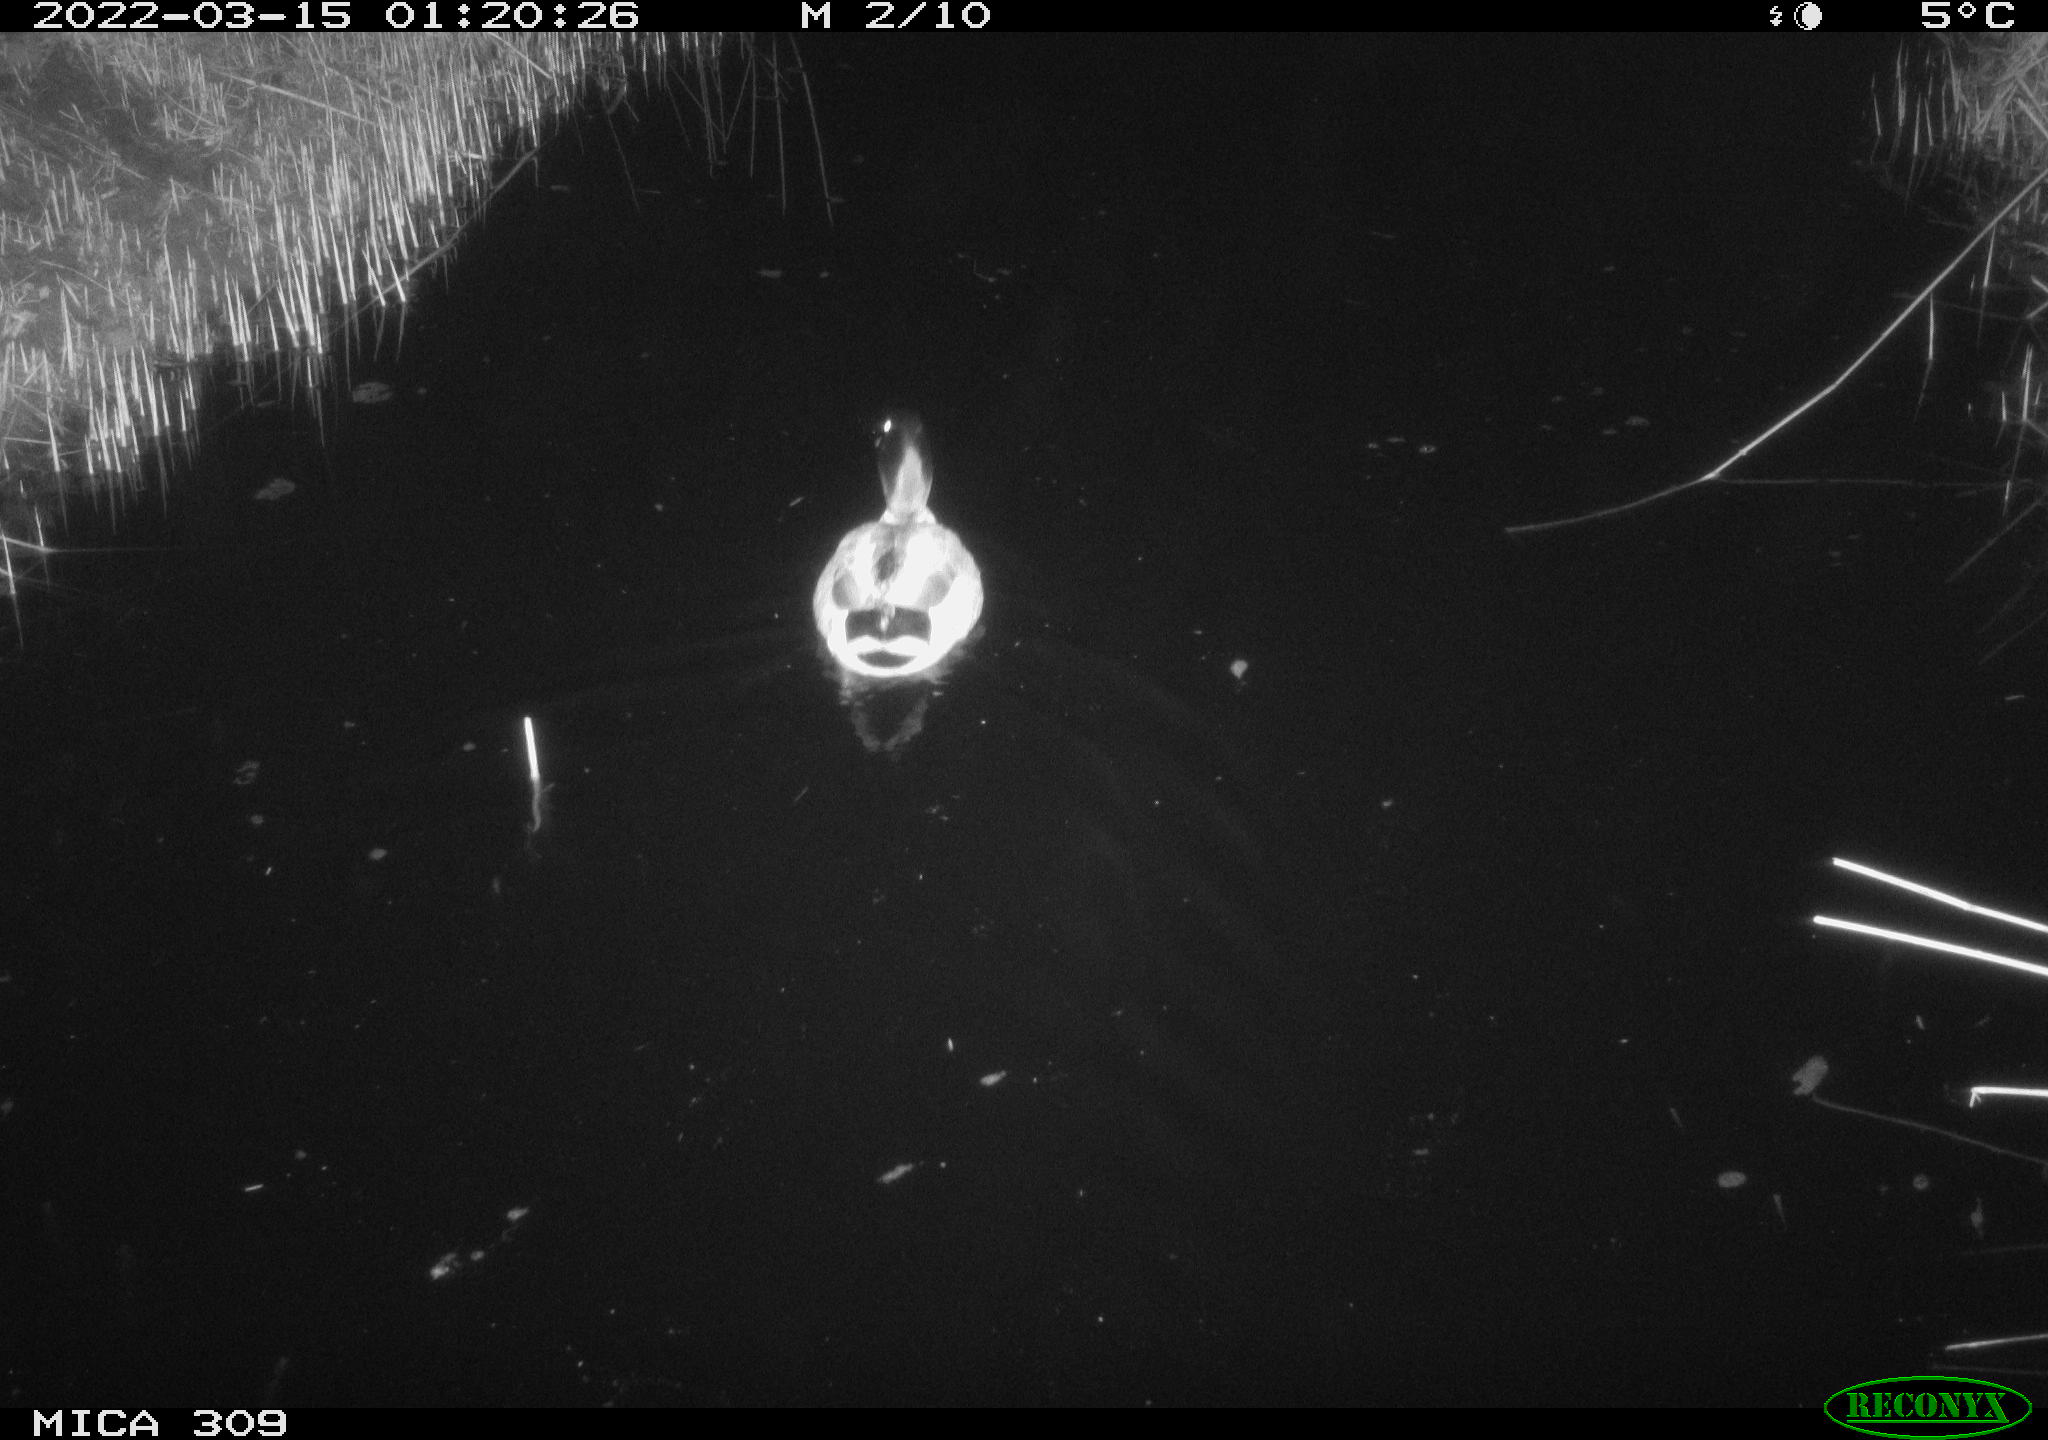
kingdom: Animalia
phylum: Chordata
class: Aves
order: Anseriformes
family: Anatidae
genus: Anas
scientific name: Anas platyrhynchos
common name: Mallard
